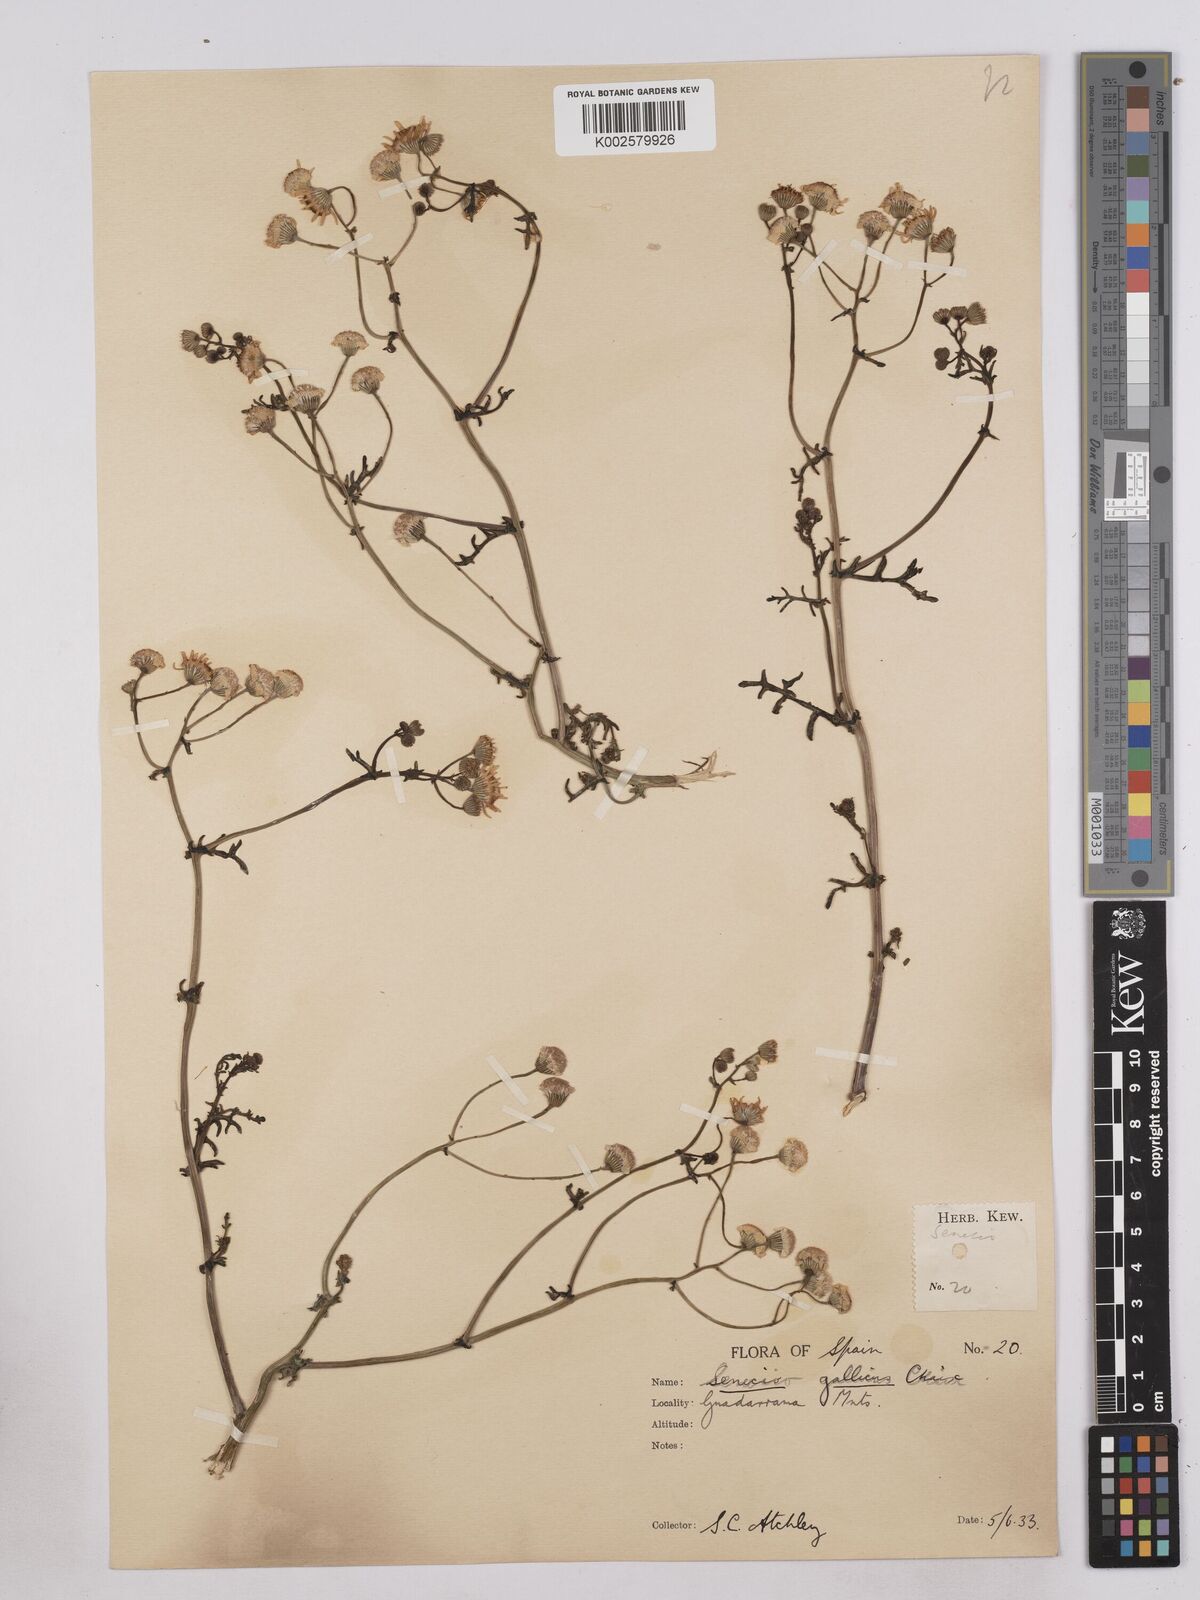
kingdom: Plantae
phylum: Tracheophyta
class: Magnoliopsida
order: Asterales
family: Asteraceae
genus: Senecio
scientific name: Senecio gallicus
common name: French groundsel
